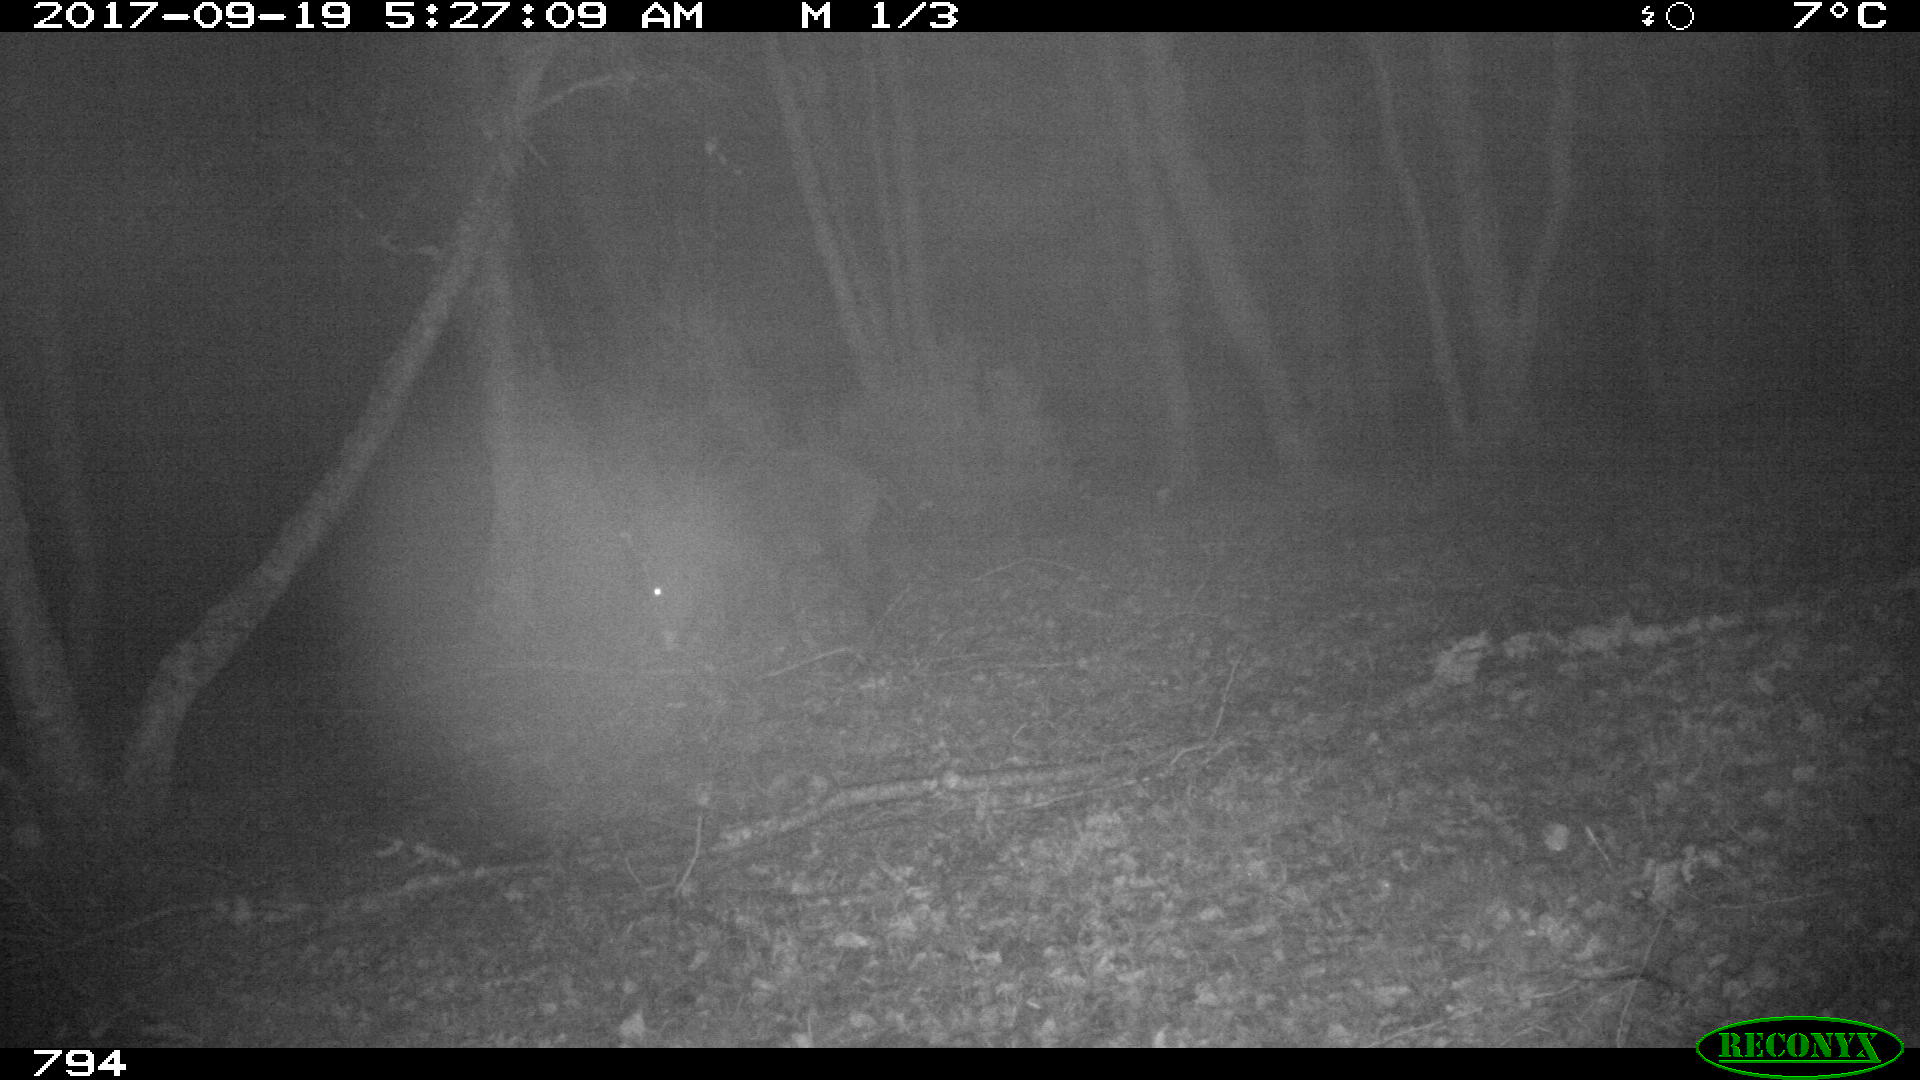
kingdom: Animalia
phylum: Chordata
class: Mammalia
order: Artiodactyla
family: Suidae
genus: Sus
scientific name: Sus scrofa
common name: Wild boar
